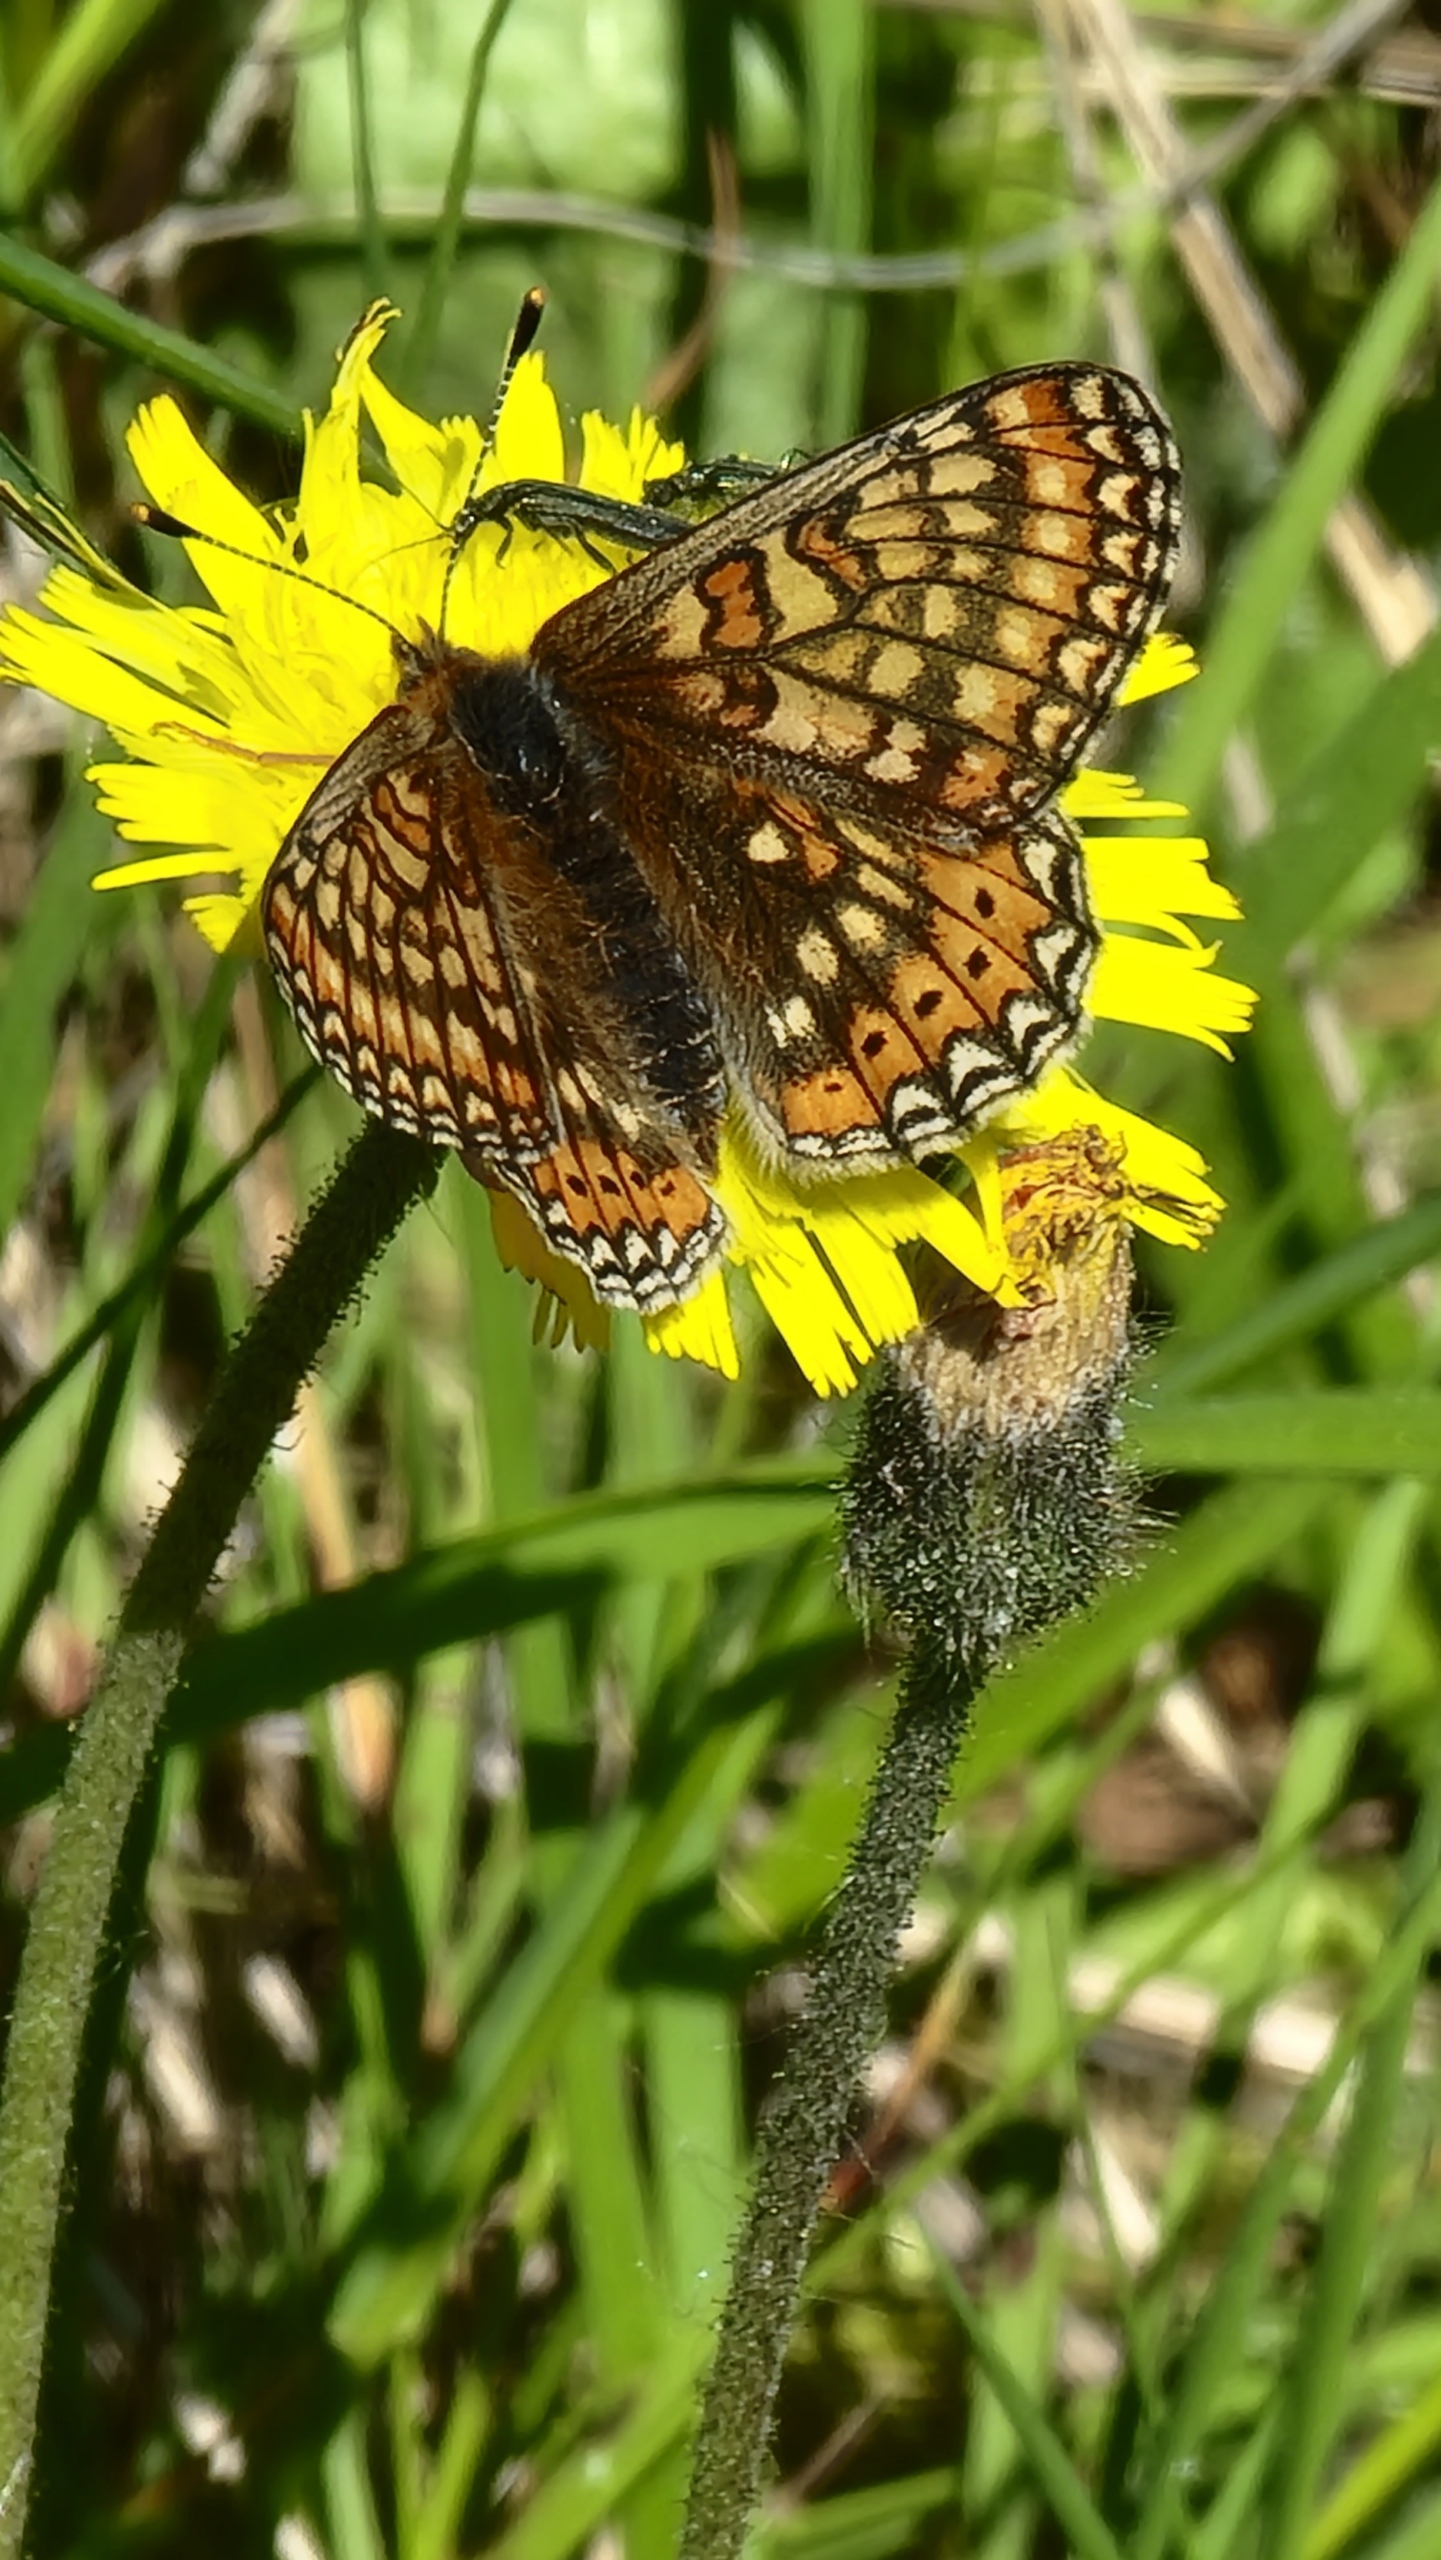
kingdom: Animalia
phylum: Arthropoda
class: Insecta
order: Lepidoptera
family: Nymphalidae
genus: Euphydryas
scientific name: Euphydryas aurinia
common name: Hedepletvinge
